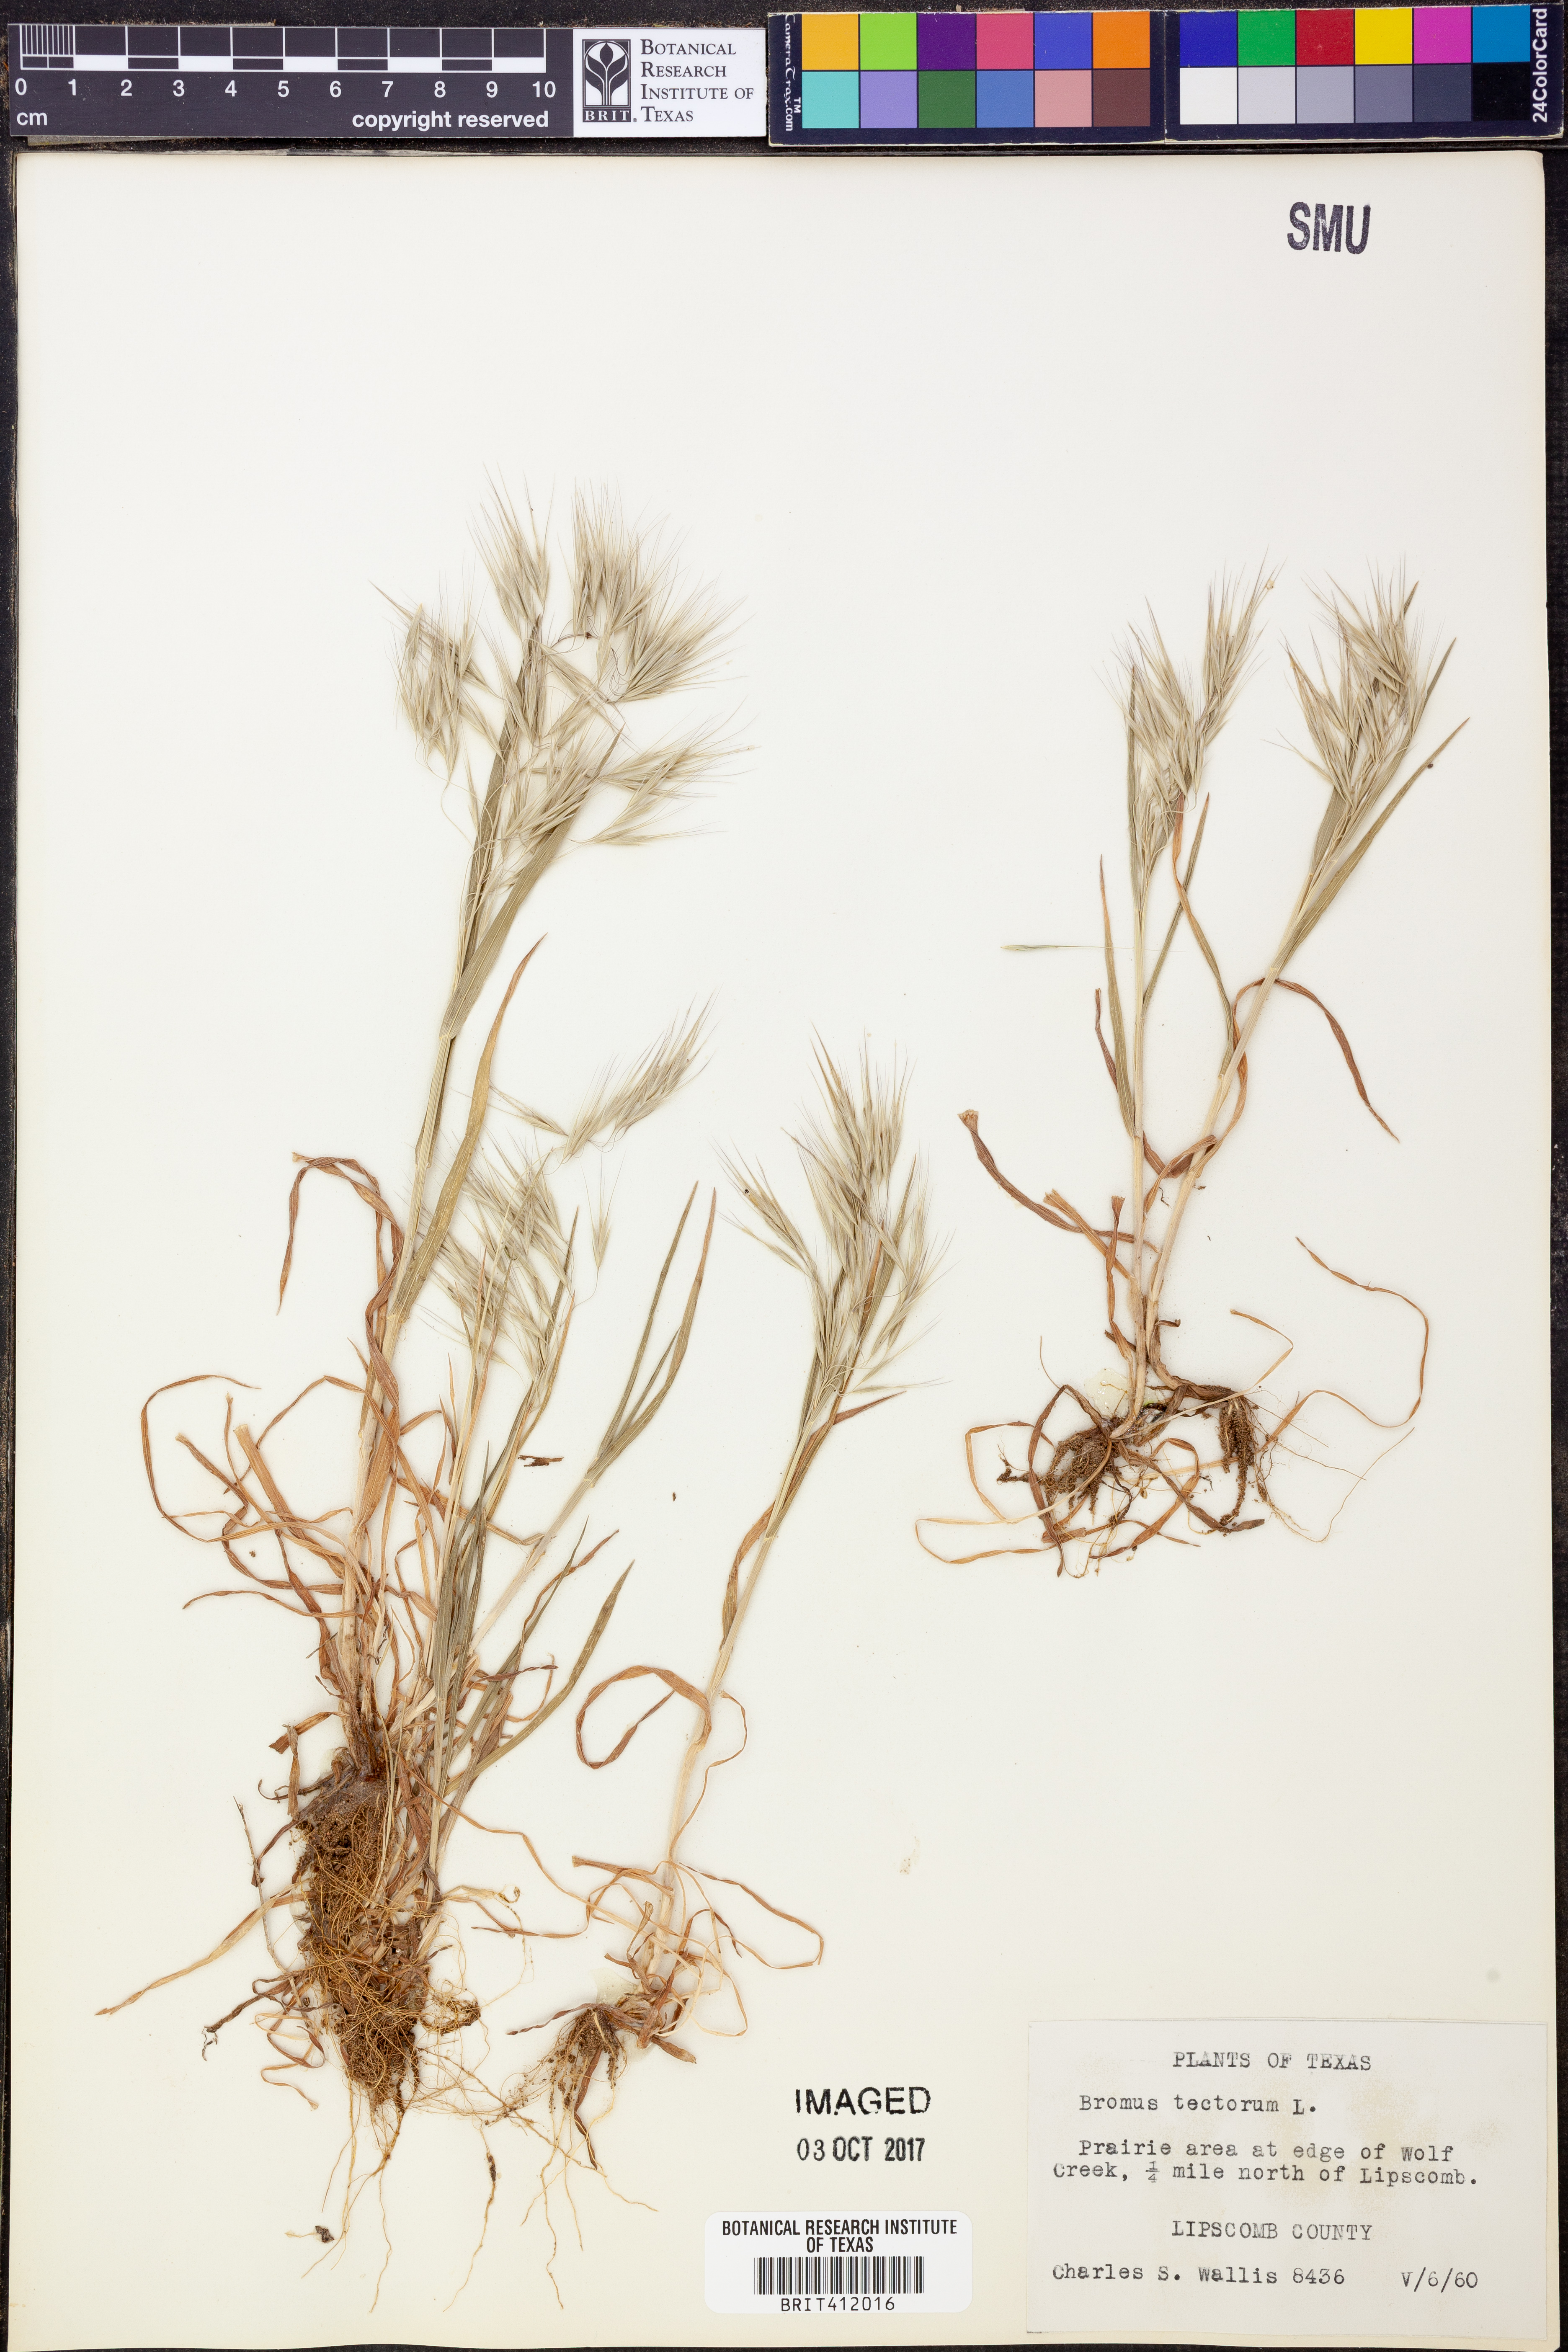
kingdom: Plantae
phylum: Tracheophyta
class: Liliopsida
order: Poales
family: Poaceae
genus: Bromus
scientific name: Bromus tectorum
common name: Cheatgrass
